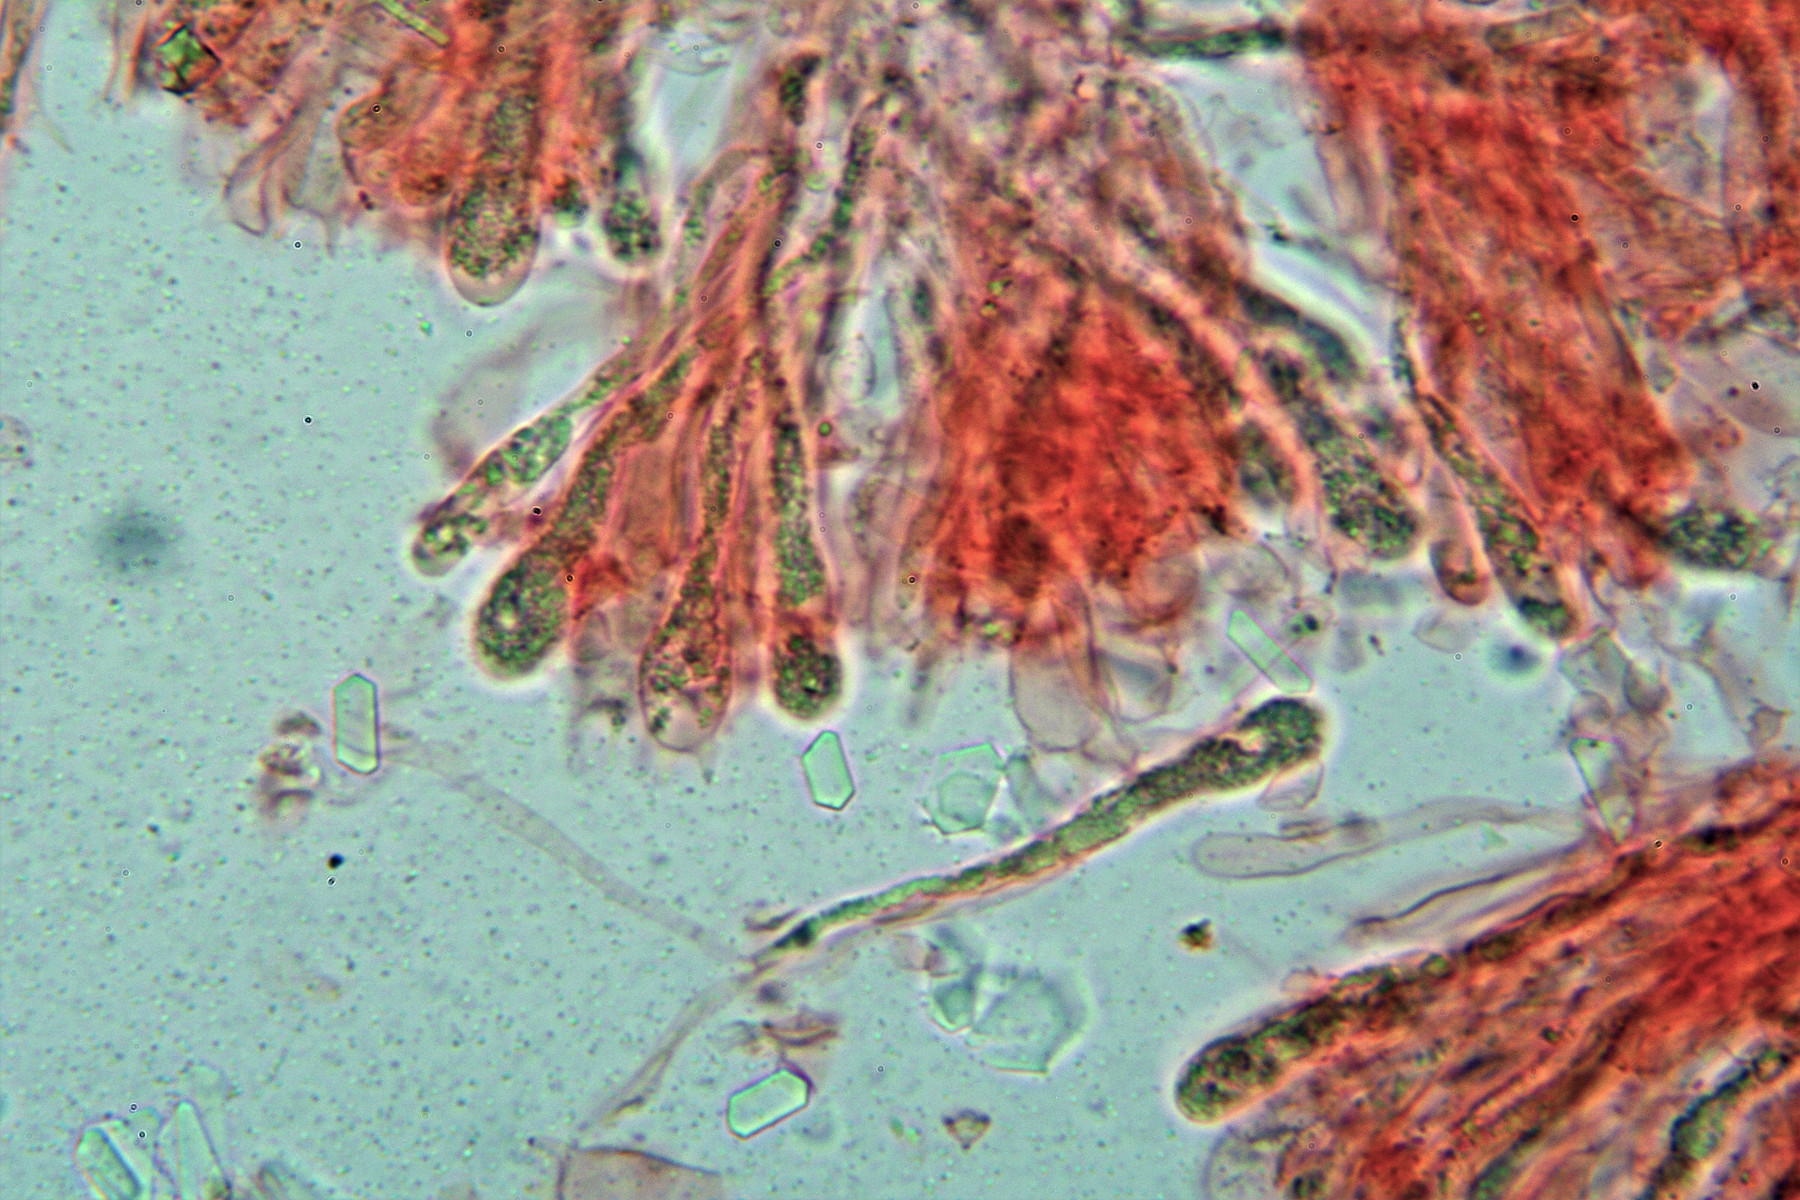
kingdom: Fungi
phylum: Basidiomycota
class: Agaricomycetes
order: Agaricales
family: Clavariaceae
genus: Clavaria
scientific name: Clavaria tenuipes
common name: isabellafarvet køllesvamp
